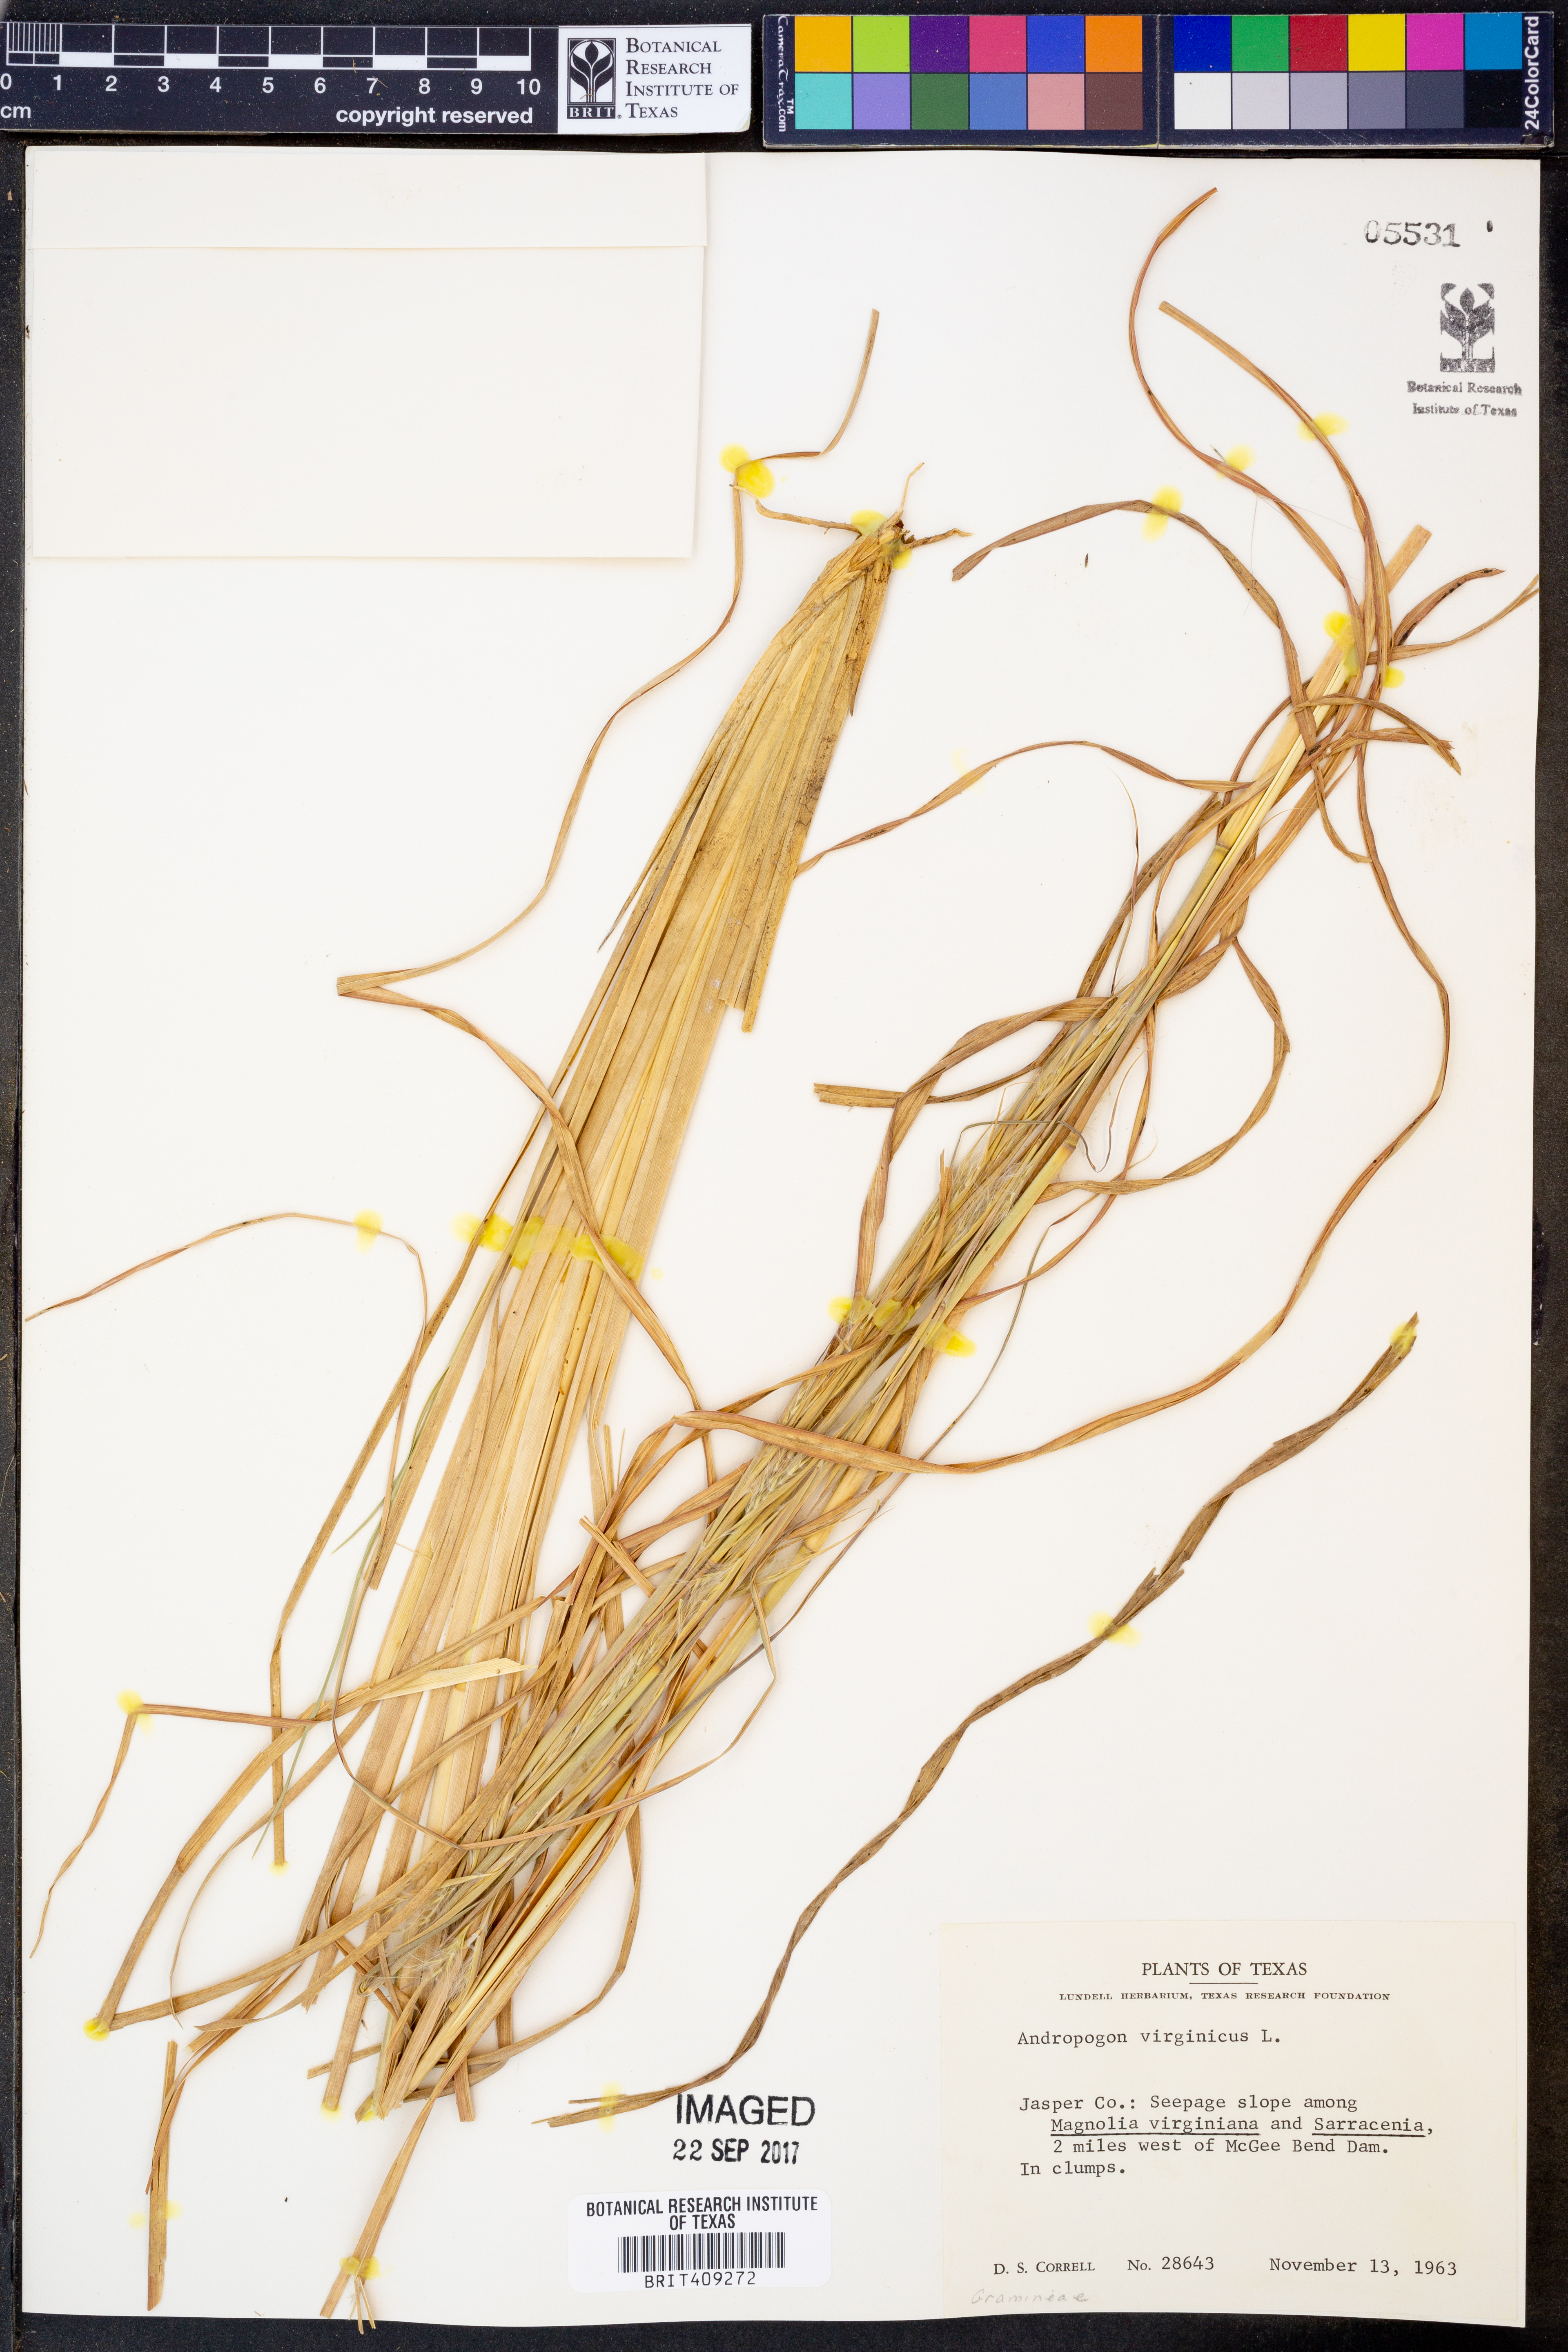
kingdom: Plantae
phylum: Tracheophyta
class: Liliopsida
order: Poales
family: Poaceae
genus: Andropogon
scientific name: Andropogon virginicus
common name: Broomsedge bluestem
